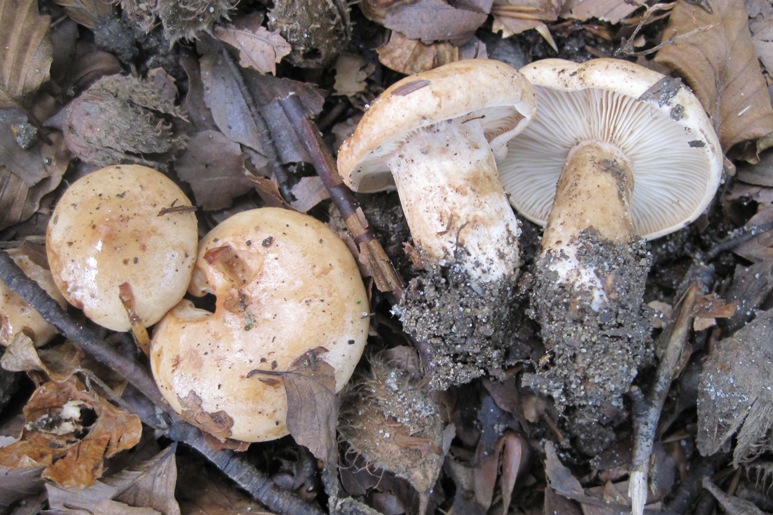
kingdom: Fungi
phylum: Basidiomycota
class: Agaricomycetes
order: Russulales
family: Russulaceae
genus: Lactarius
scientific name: Lactarius pallidus
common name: bleg mælkehat
